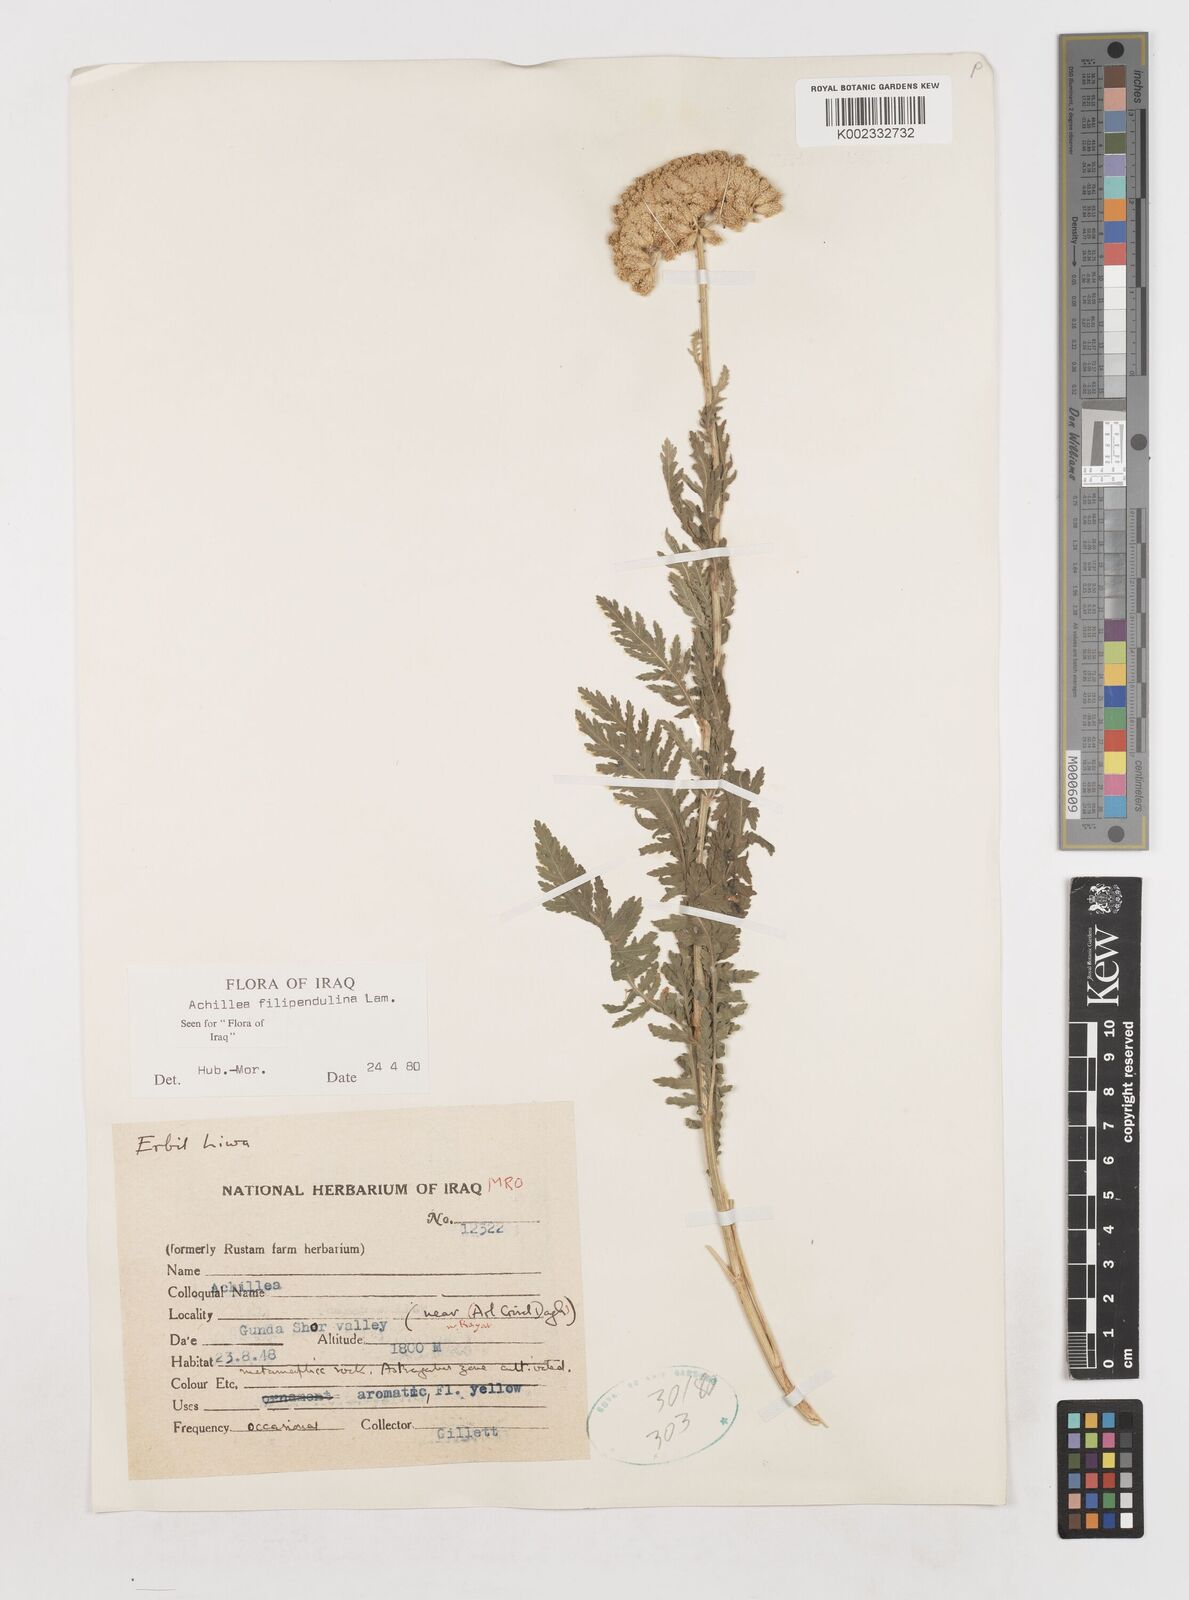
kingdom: Plantae
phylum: Tracheophyta
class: Magnoliopsida
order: Asterales
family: Asteraceae
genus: Achillea
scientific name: Achillea filipendulina
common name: Fernleaf yarrow
